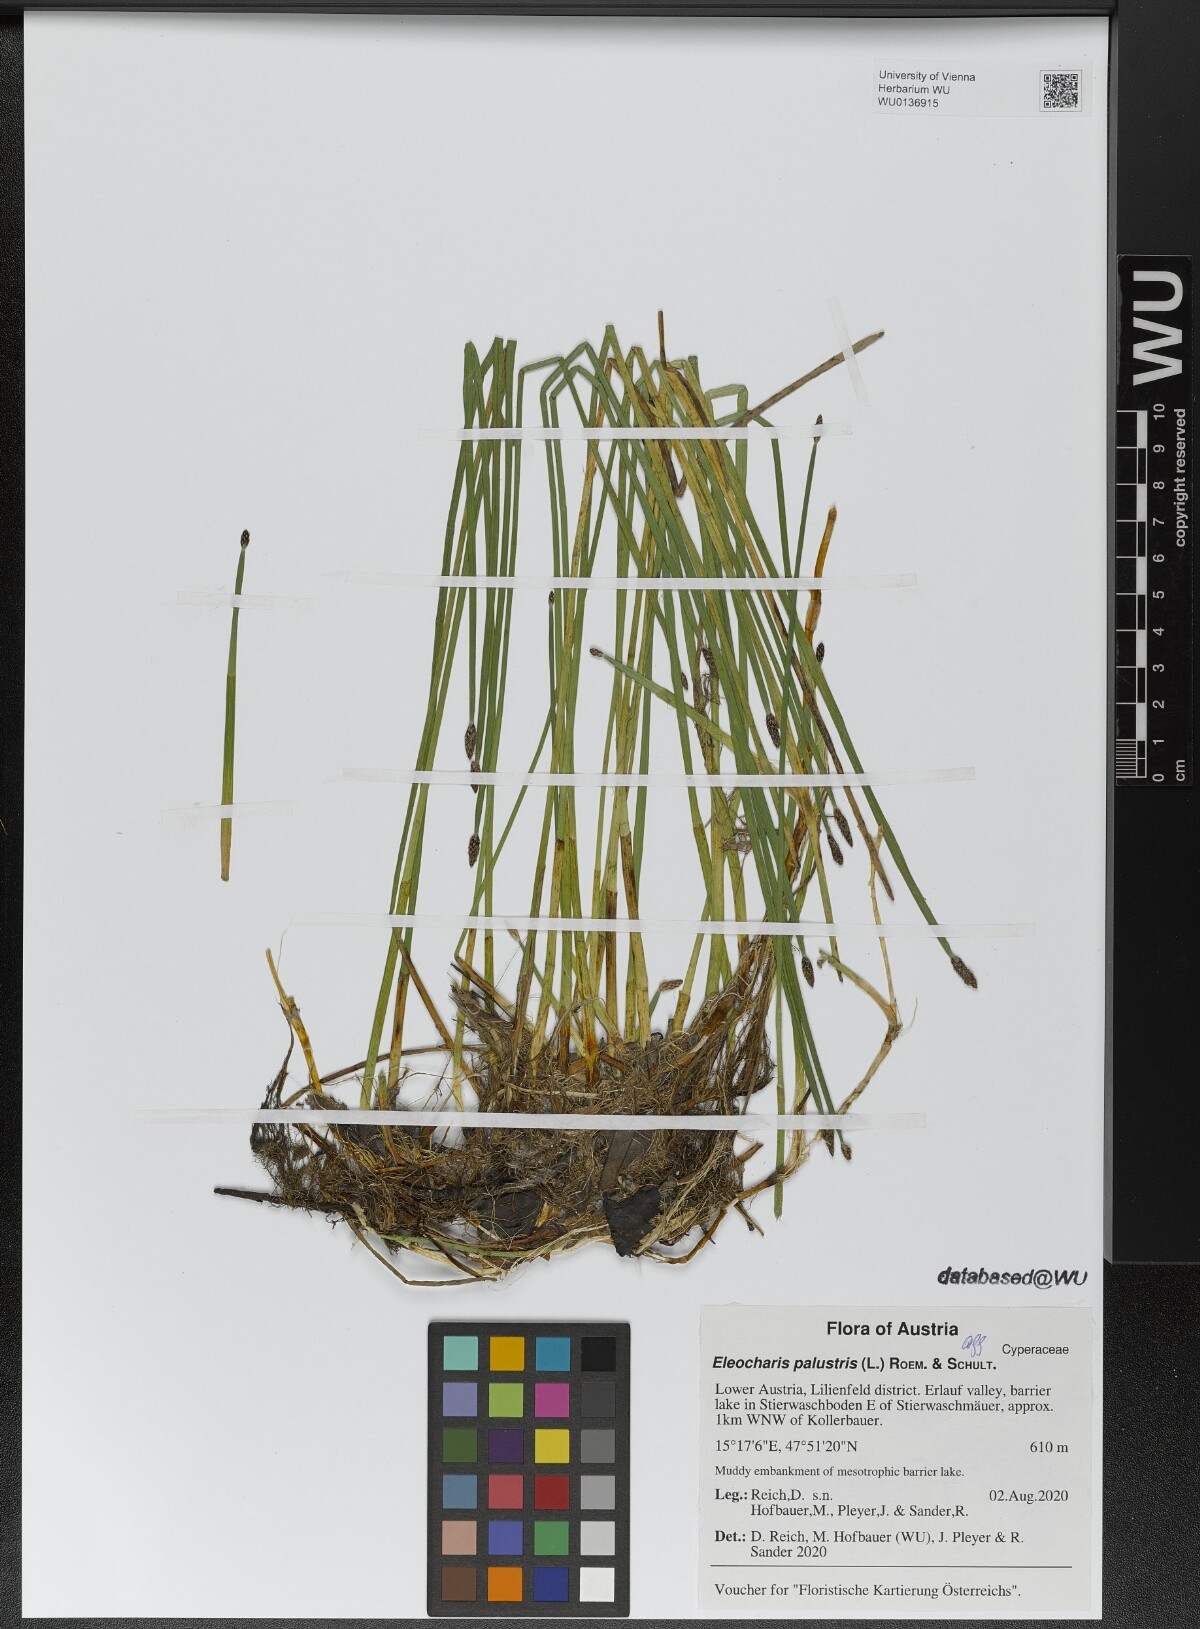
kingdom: Plantae
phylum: Tracheophyta
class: Liliopsida
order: Poales
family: Cyperaceae
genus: Eleocharis
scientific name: Eleocharis palustris
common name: Common spike-rush
